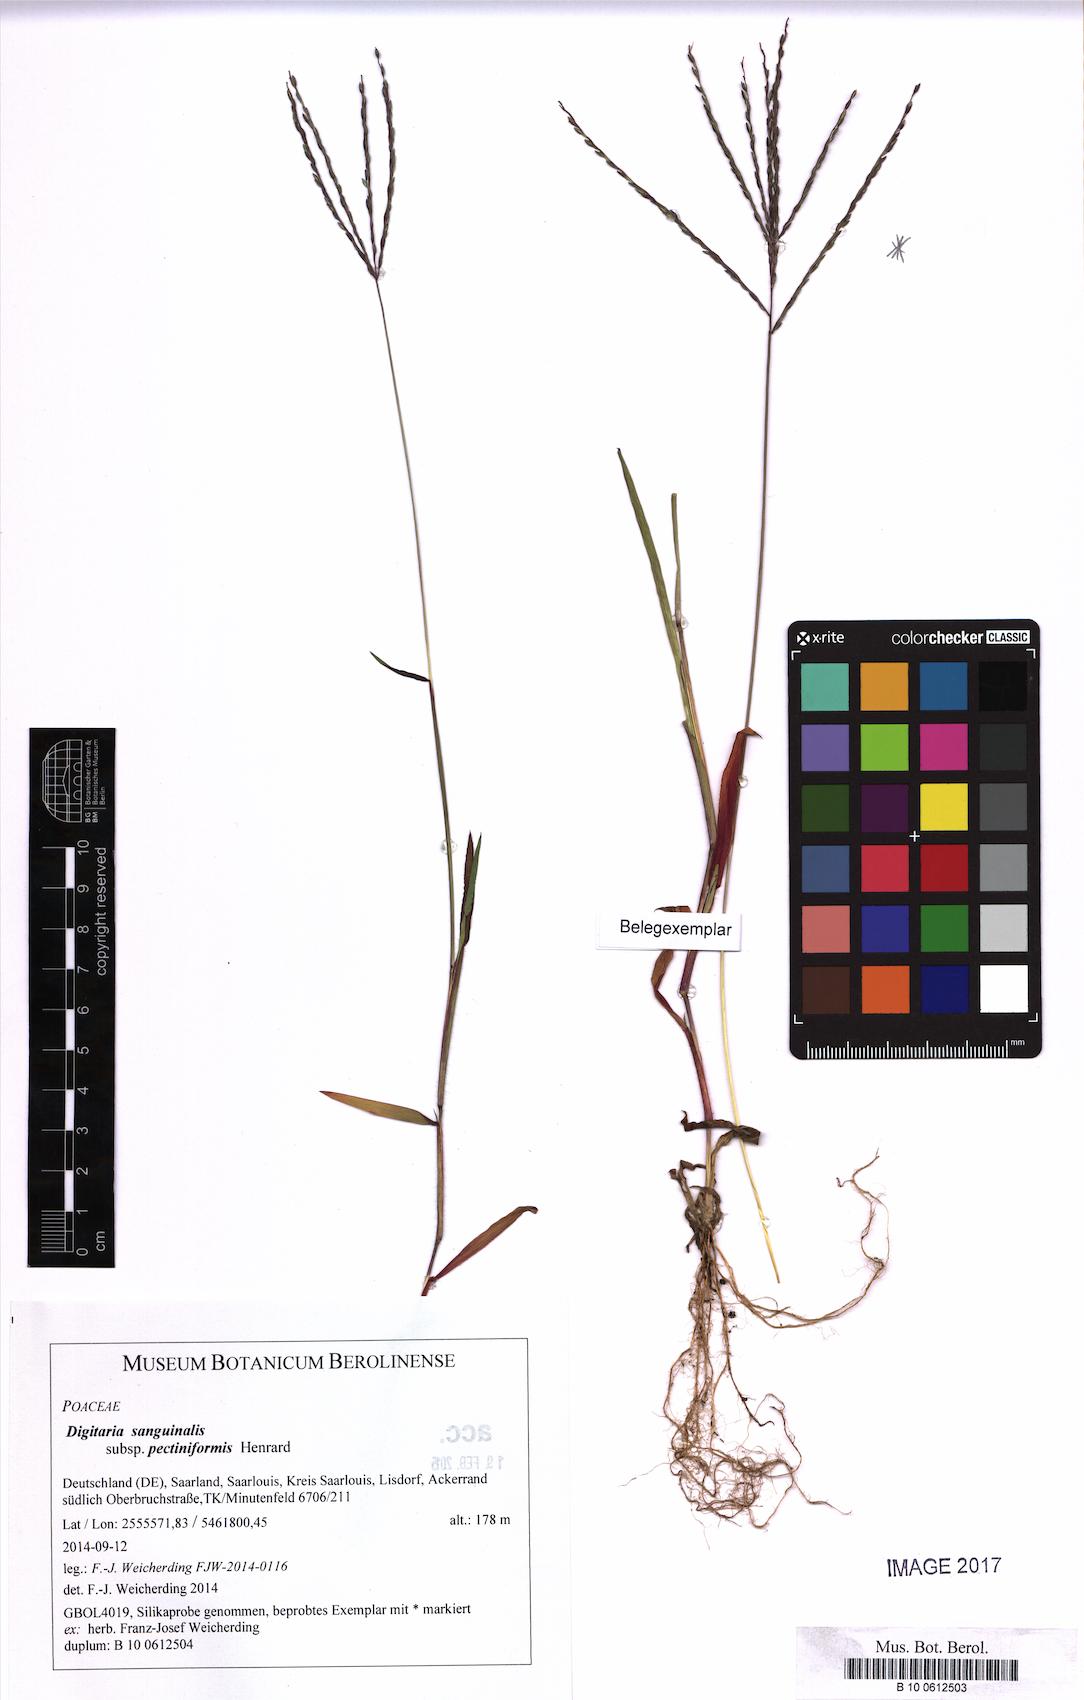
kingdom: Plantae
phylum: Tracheophyta
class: Liliopsida
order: Poales
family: Poaceae
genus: Digitaria
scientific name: Digitaria sanguinalis
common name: Hairy crabgrass
